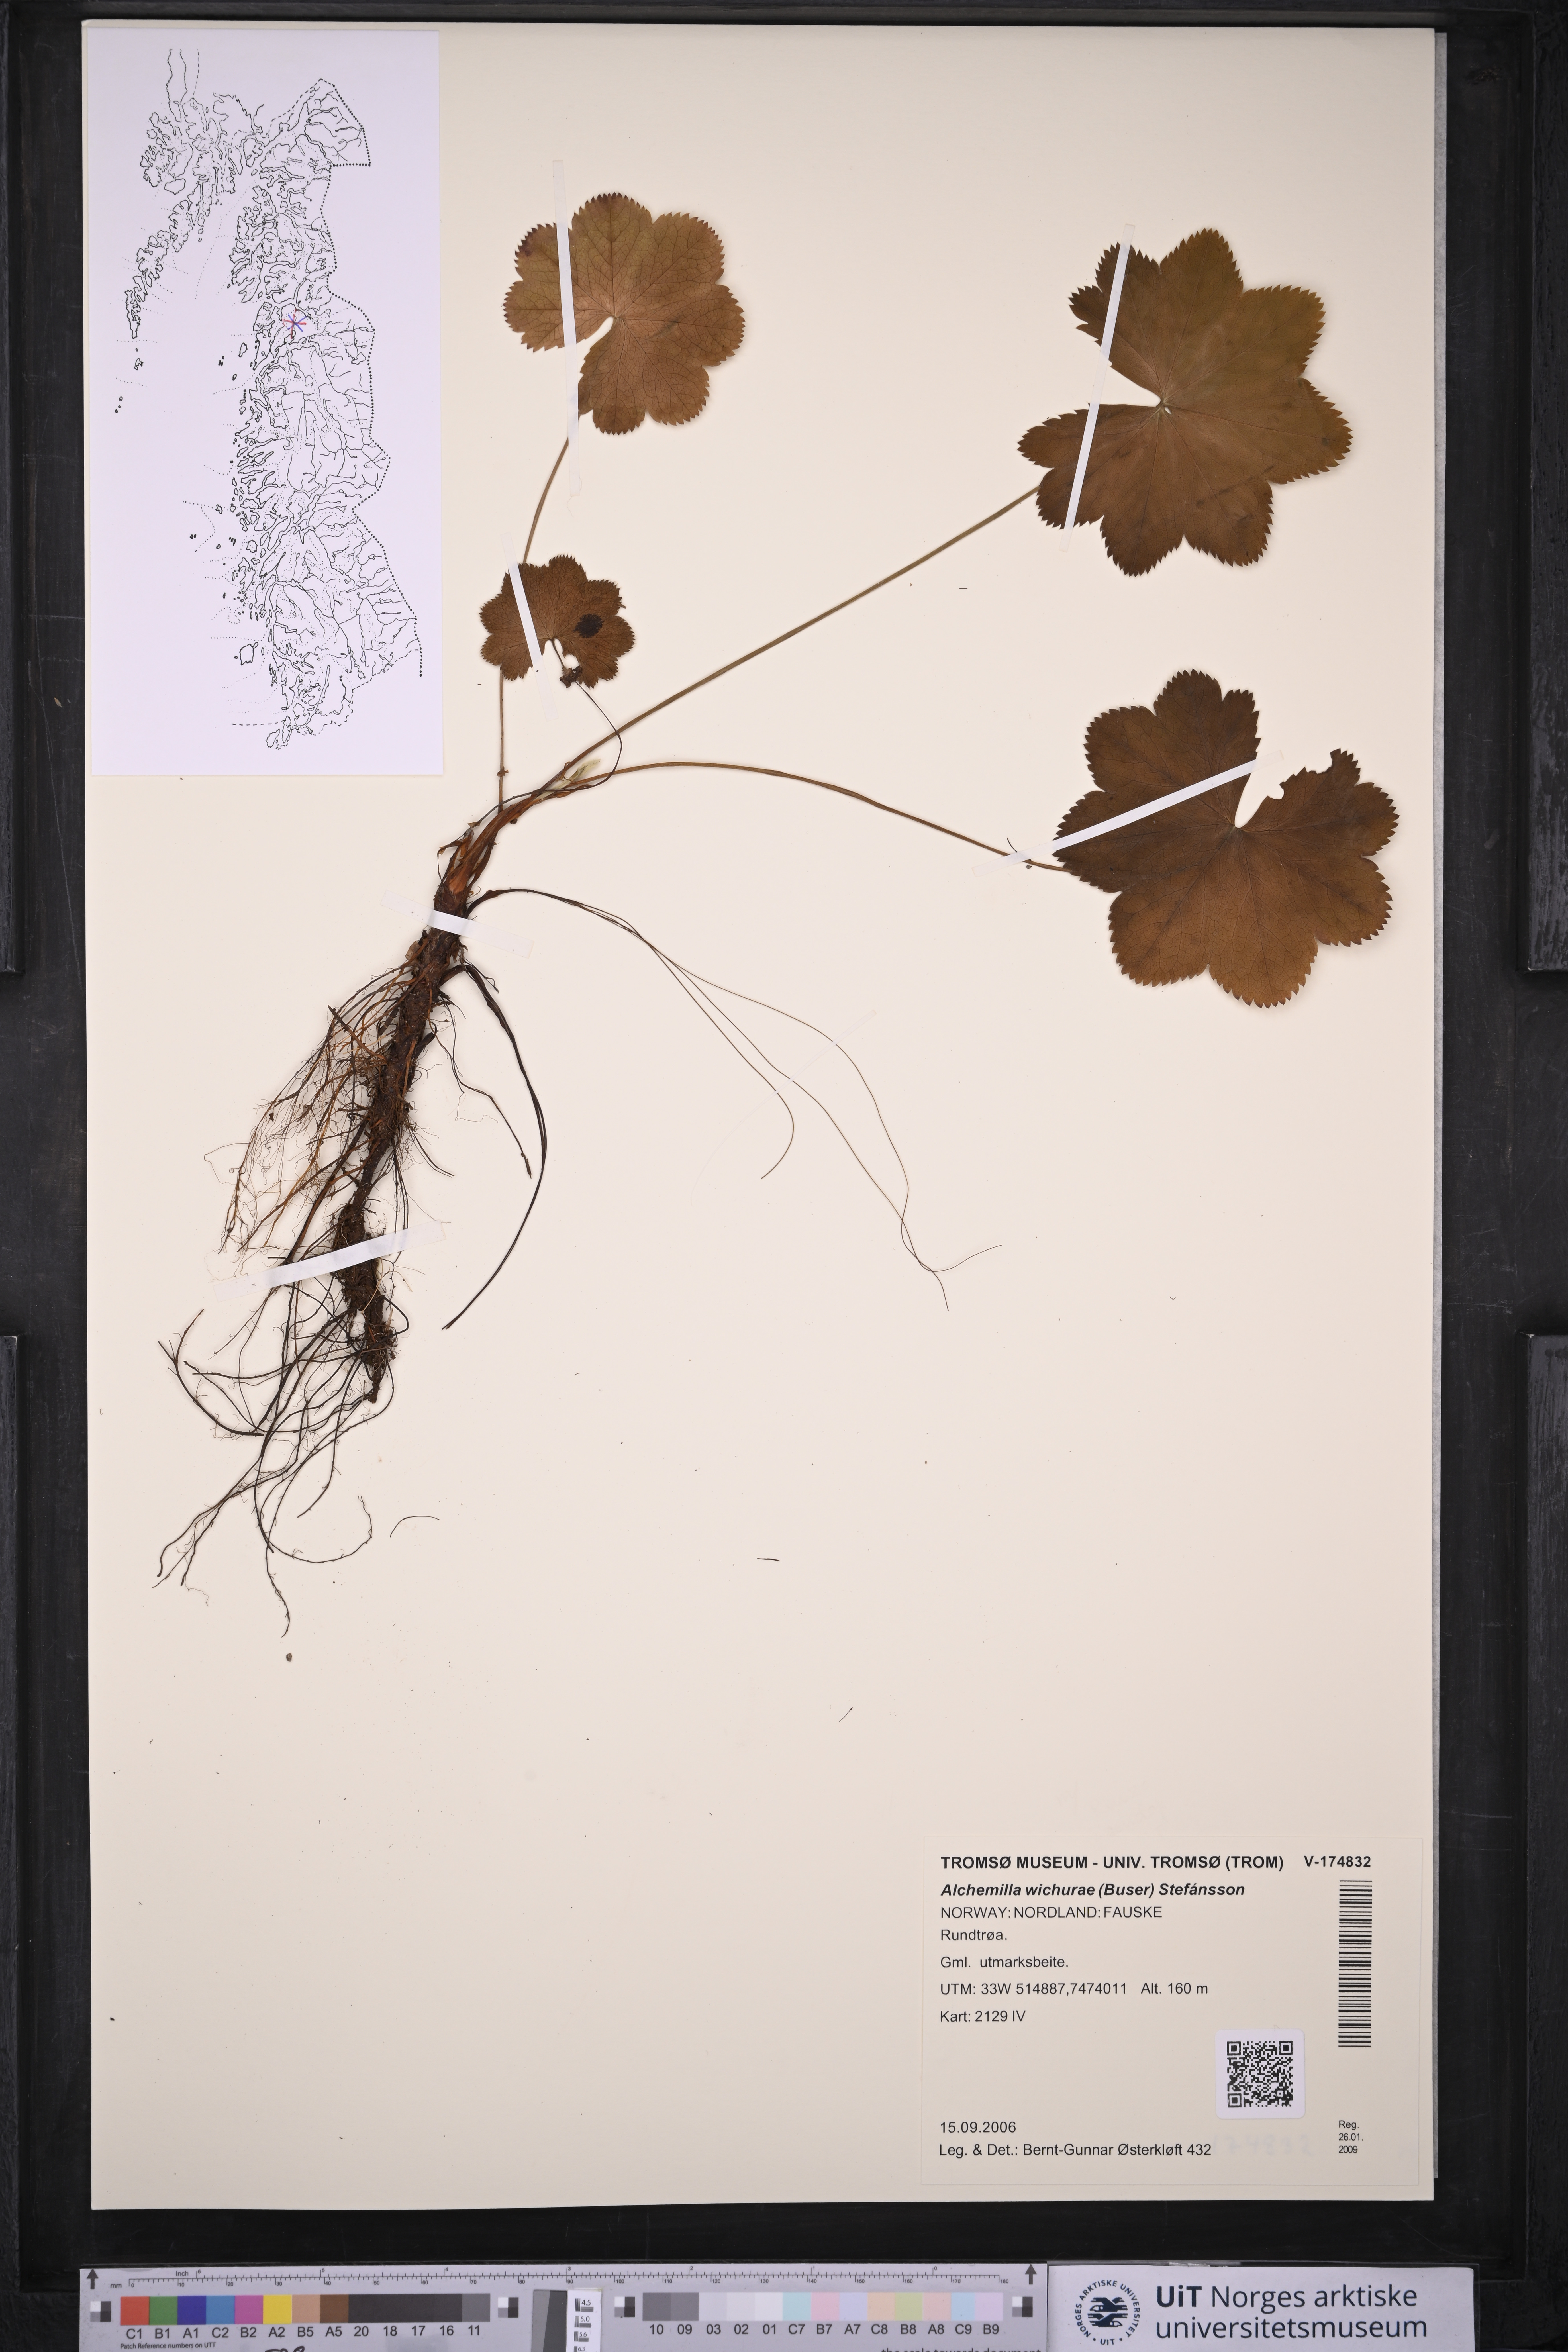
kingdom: Plantae
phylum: Tracheophyta
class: Magnoliopsida
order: Rosales
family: Rosaceae
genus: Alchemilla
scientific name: Alchemilla wichurae
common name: Rock lady's mantle
